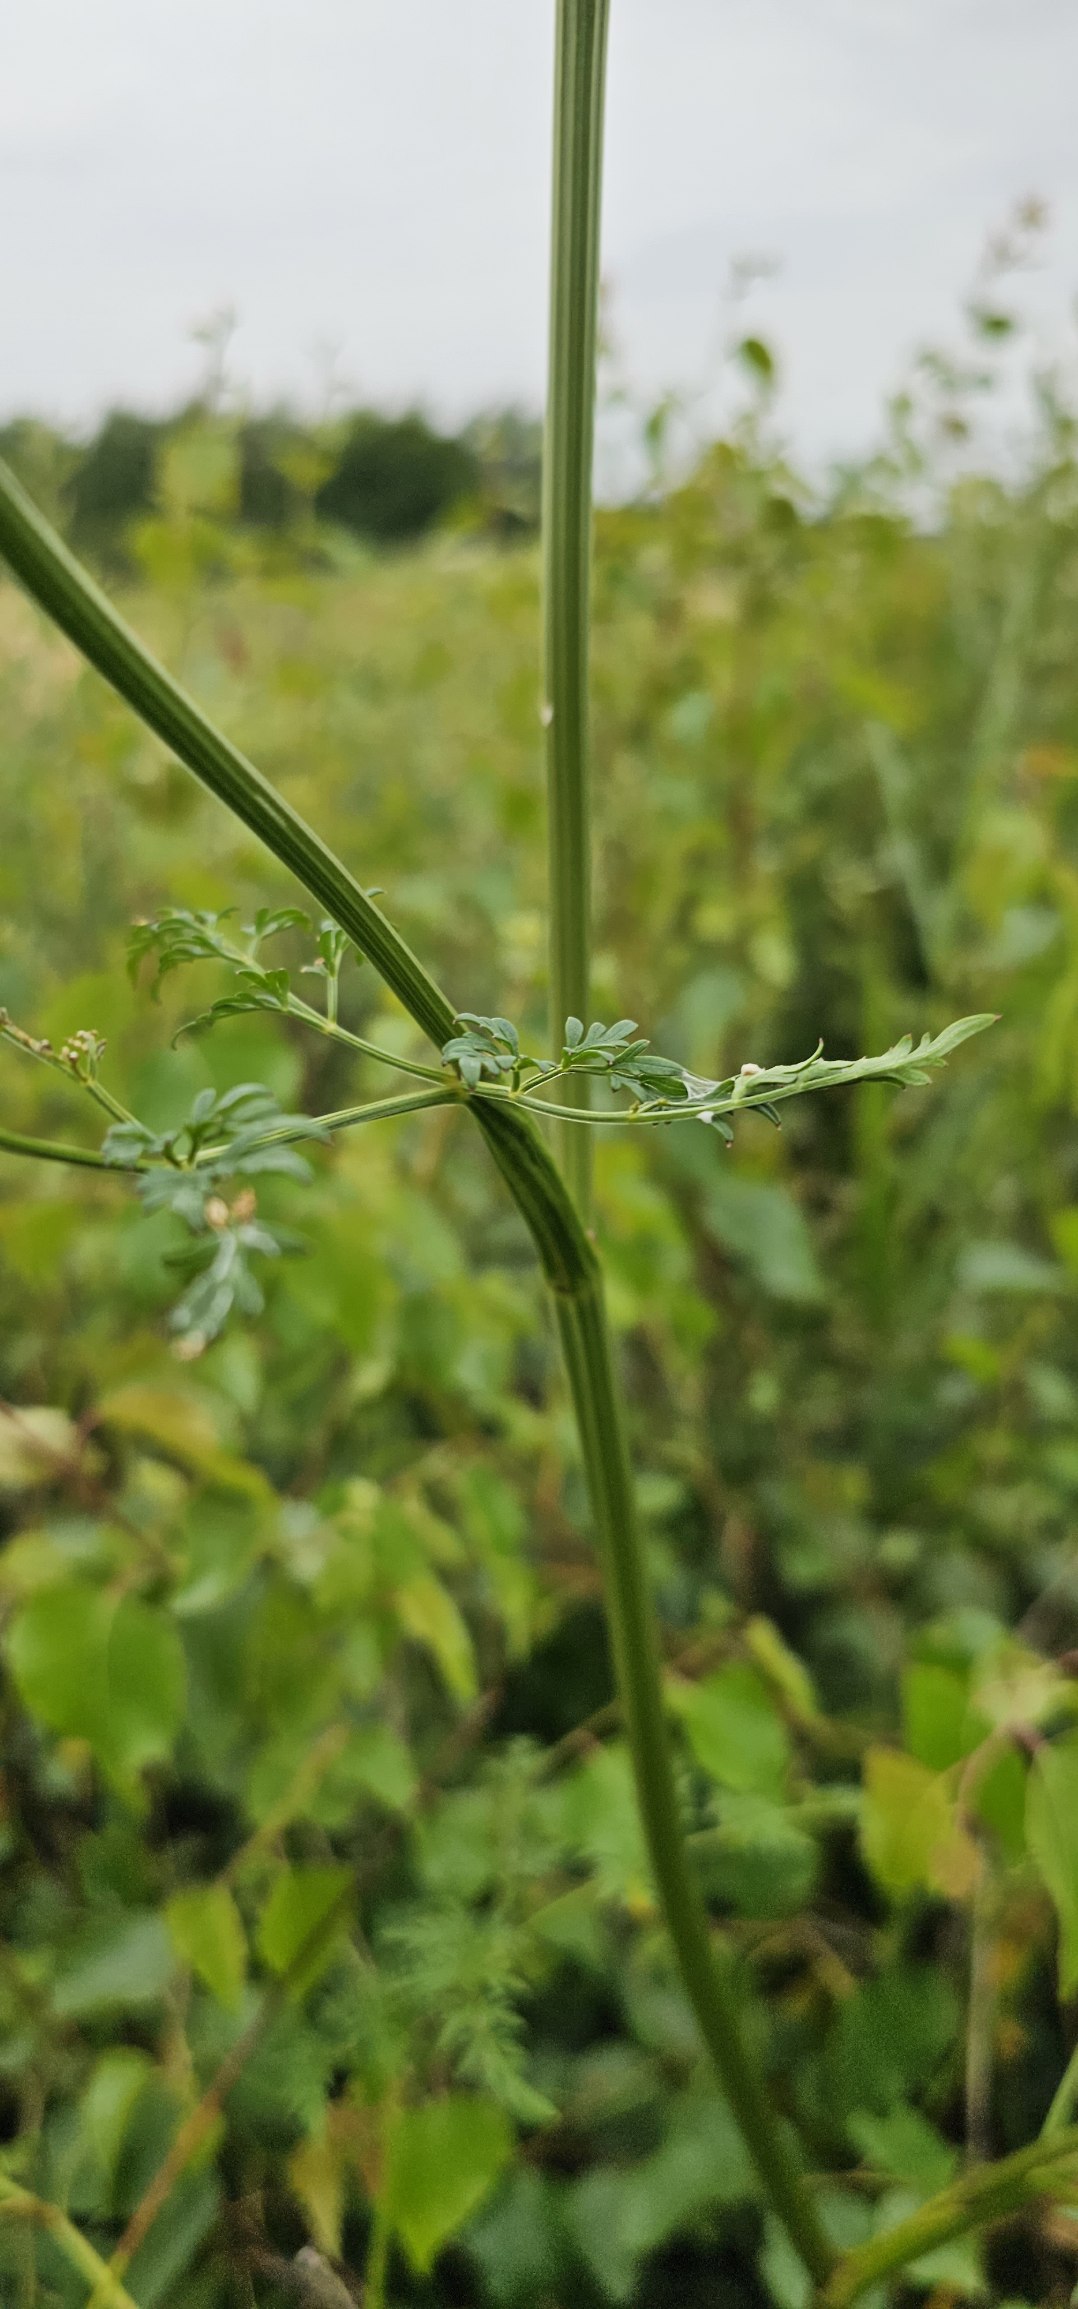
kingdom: Plantae
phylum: Tracheophyta
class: Magnoliopsida
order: Apiales
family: Apiaceae
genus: Thysselinum
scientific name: Thysselinum palustre
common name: Kær-svovlrod
